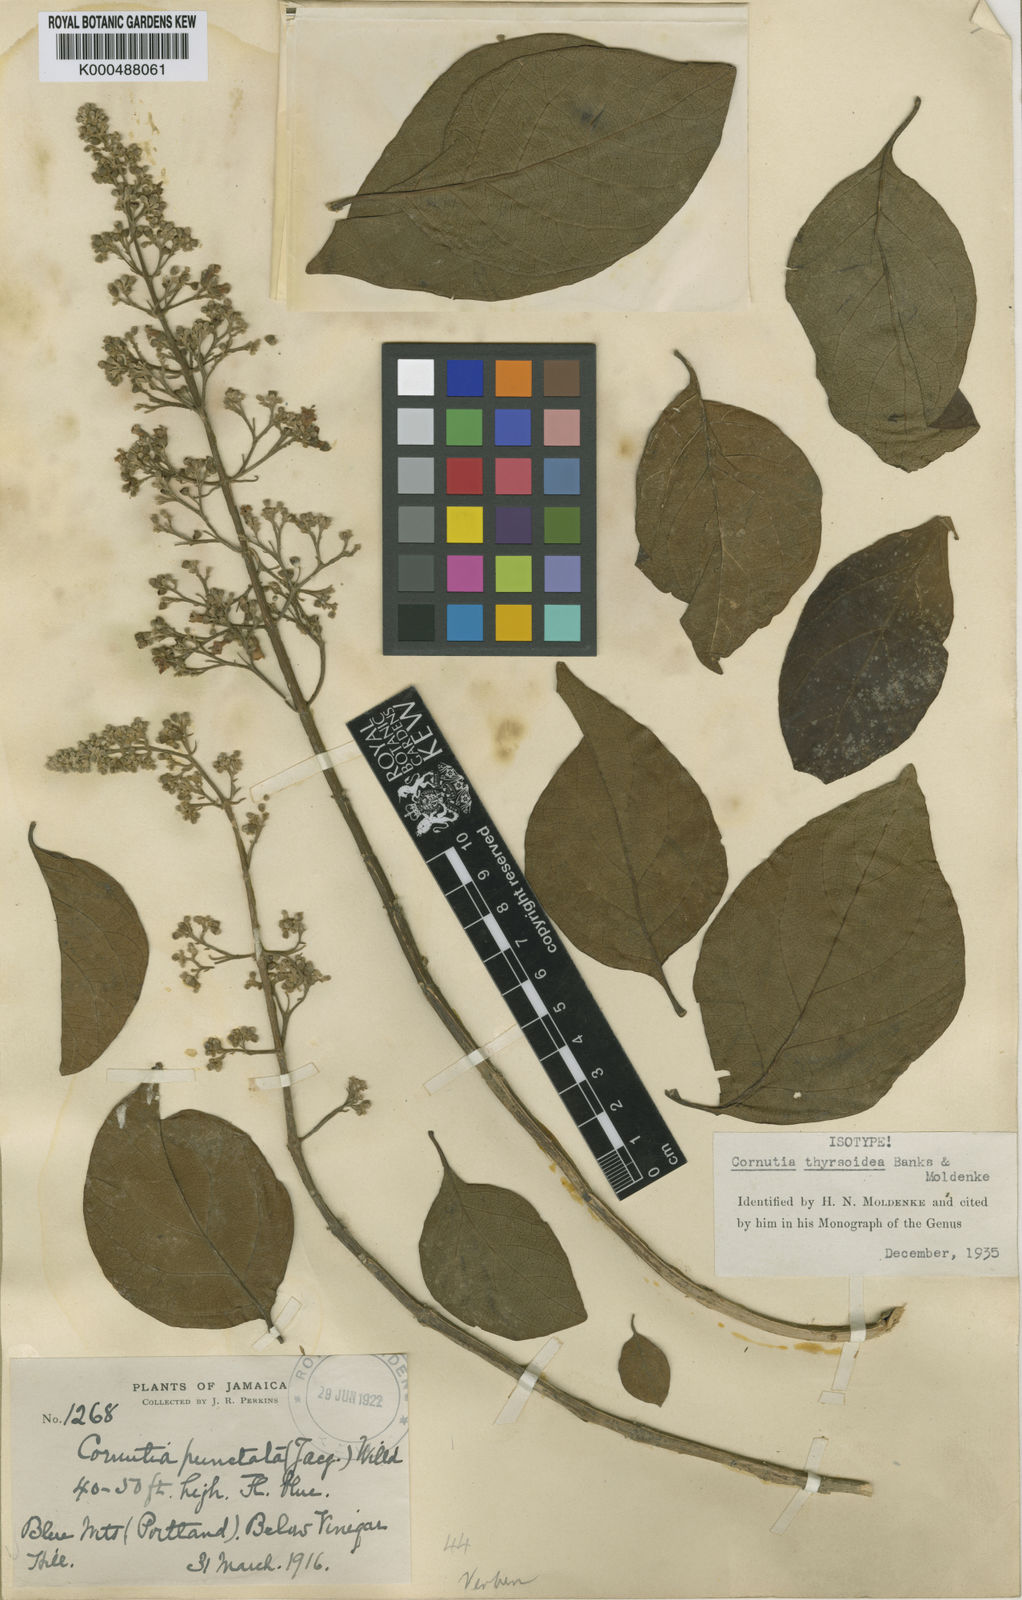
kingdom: Plantae
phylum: Tracheophyta
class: Magnoliopsida
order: Lamiales
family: Lamiaceae
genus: Cornutia
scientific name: Cornutia thyrsoidea
